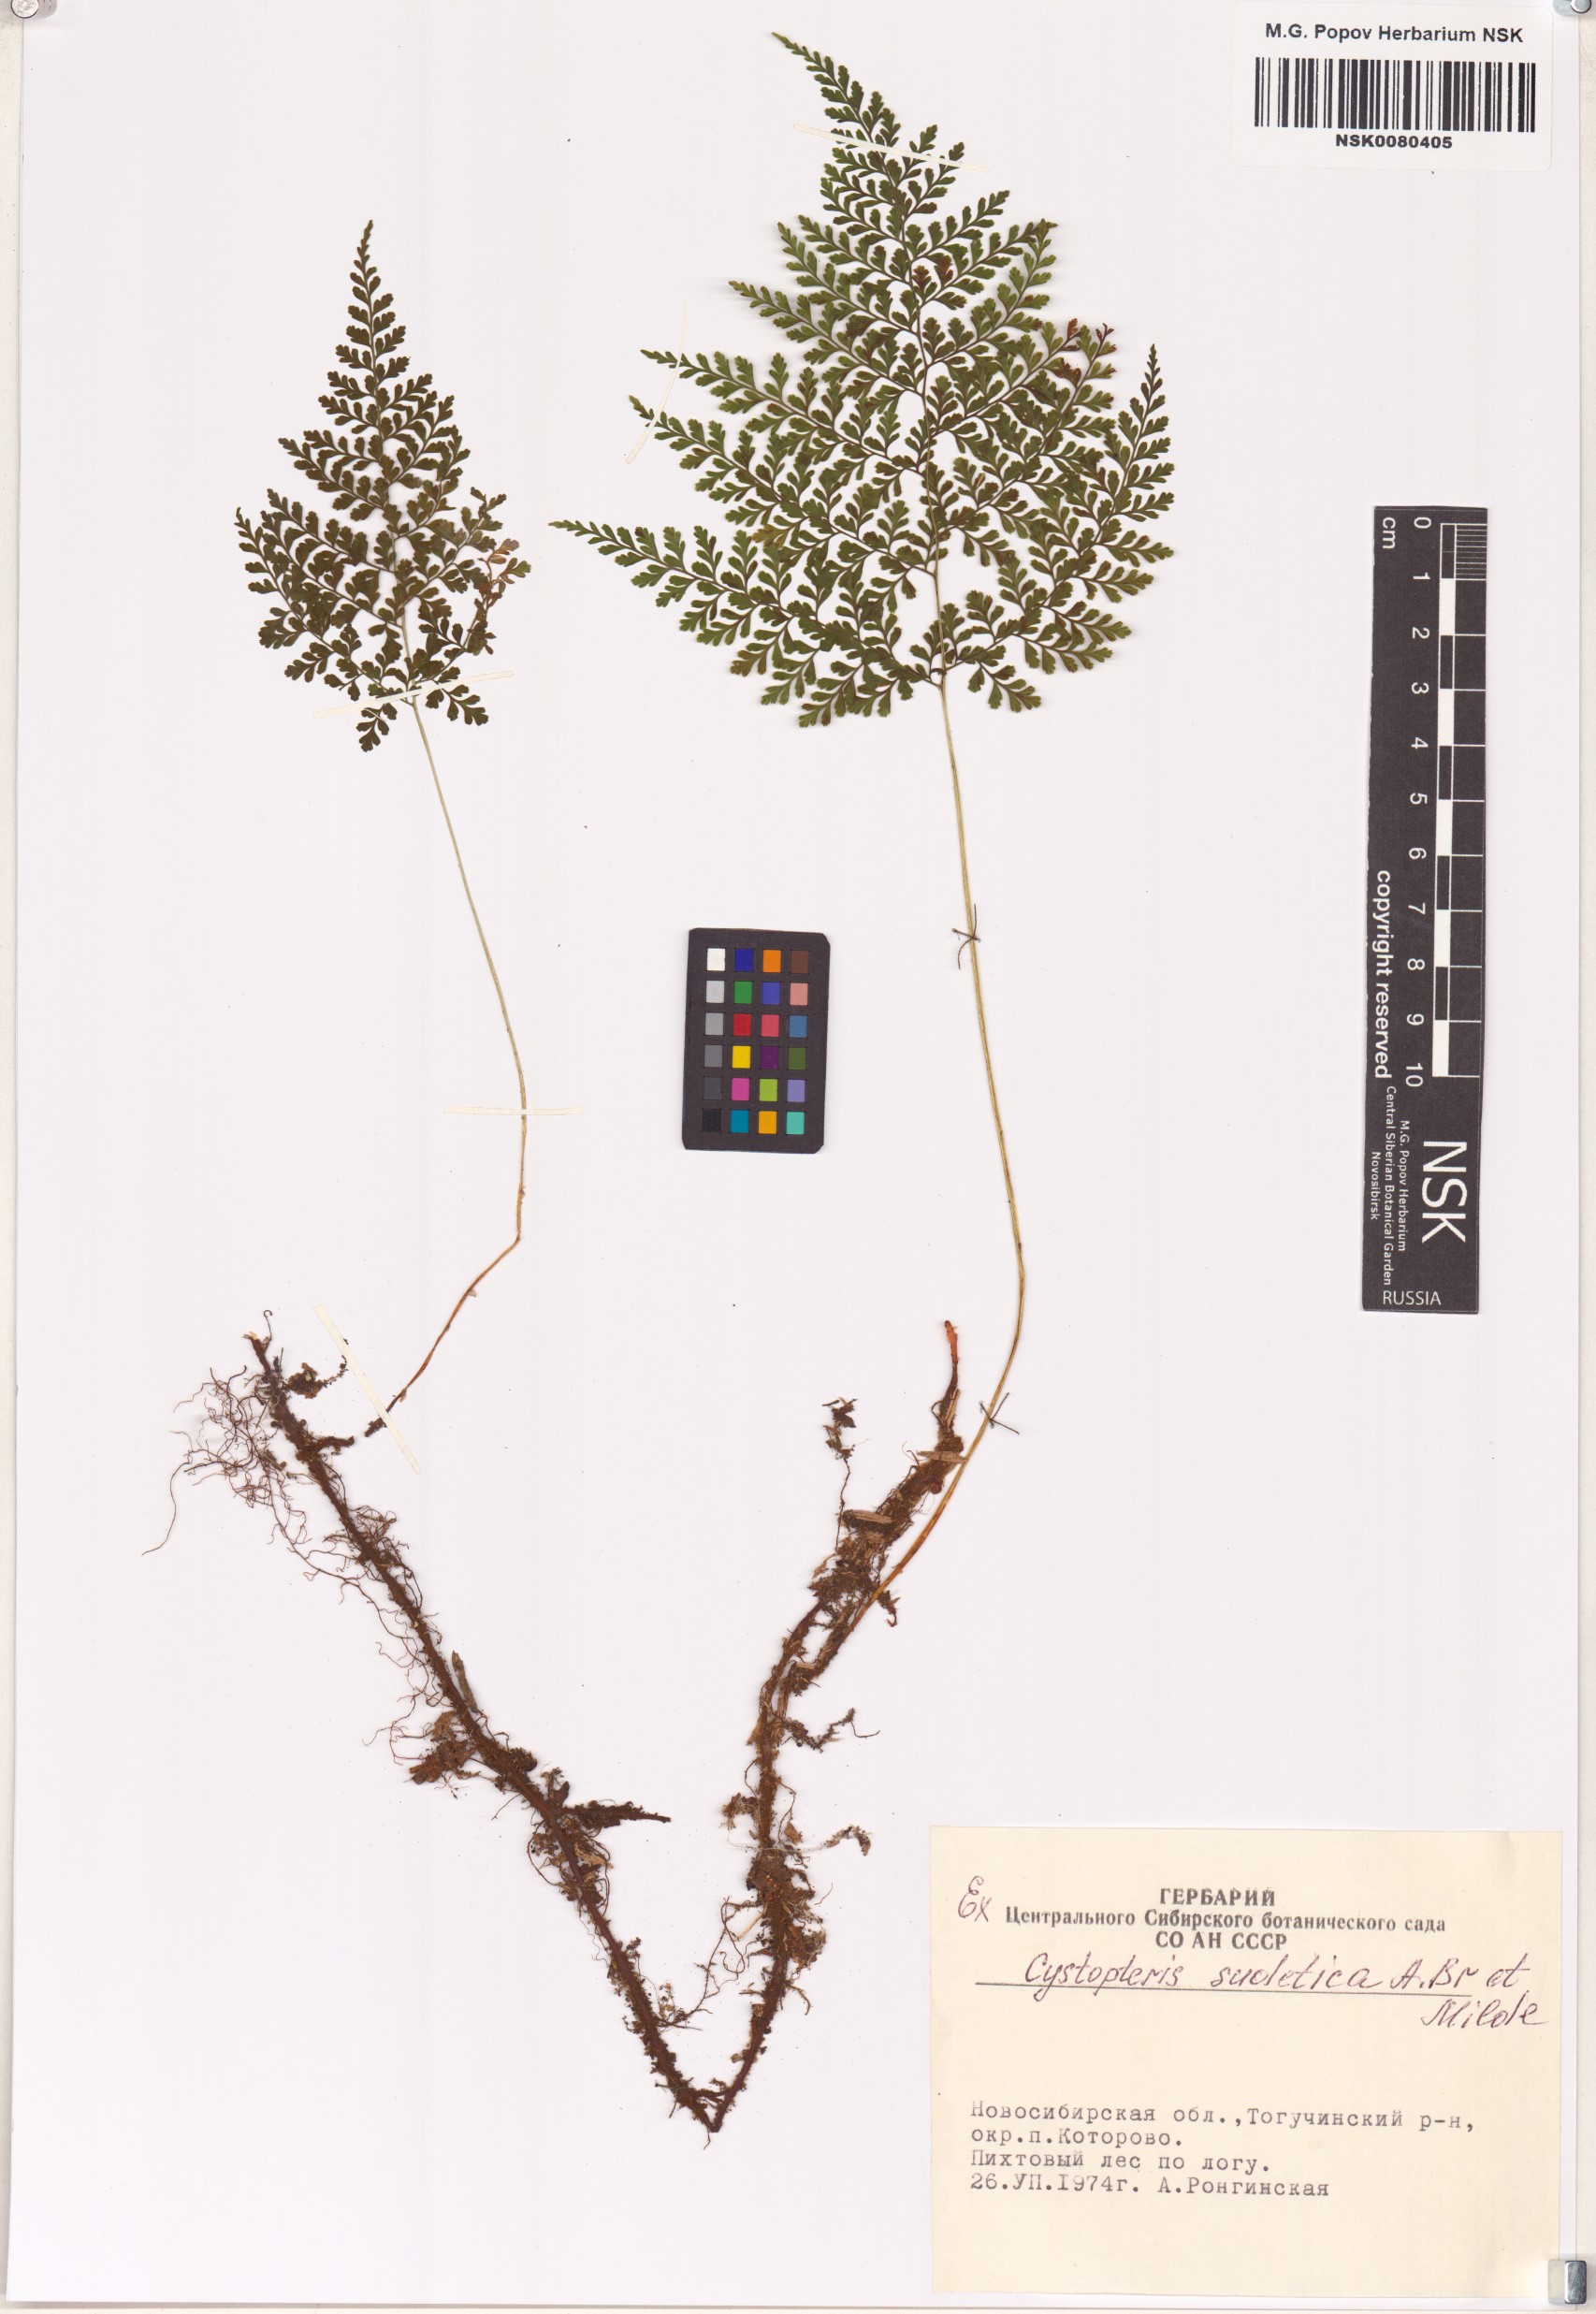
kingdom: Plantae
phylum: Tracheophyta
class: Polypodiopsida
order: Polypodiales
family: Cystopteridaceae
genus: Cystopteris
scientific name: Cystopteris sudetica
